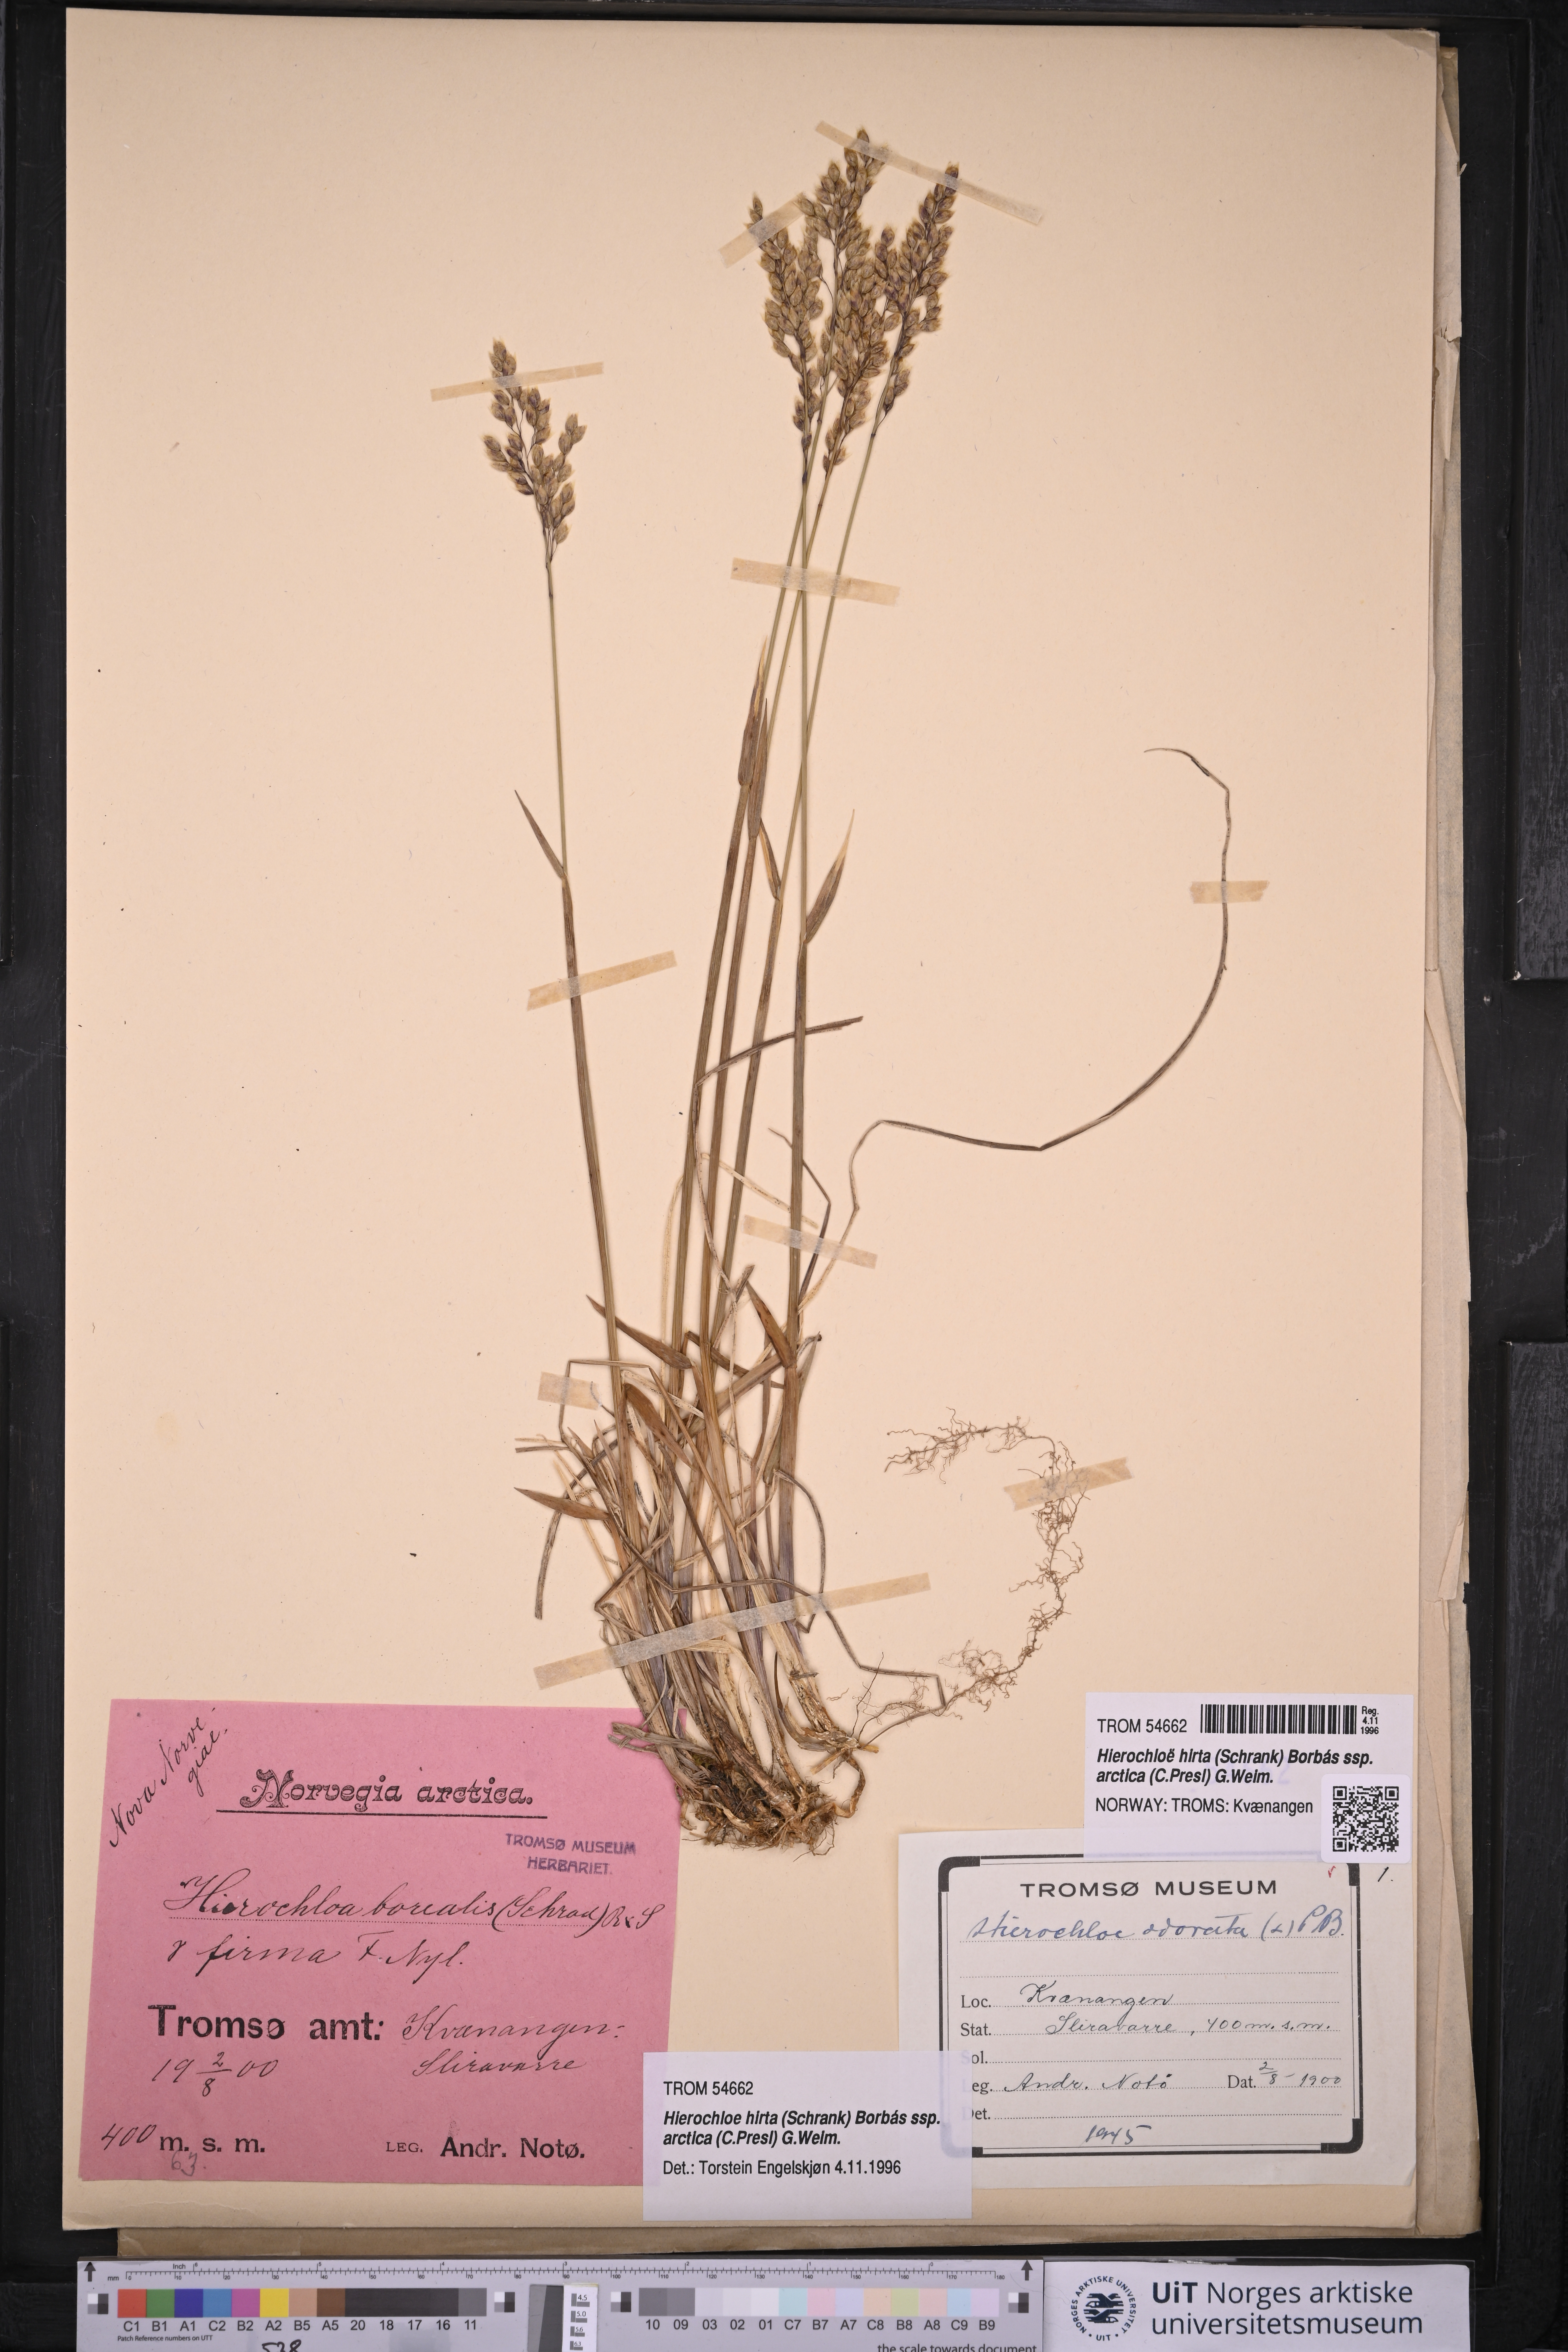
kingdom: Plantae
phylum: Tracheophyta
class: Liliopsida
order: Poales
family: Poaceae
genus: Anthoxanthum
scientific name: Anthoxanthum nitens
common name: Holy grass
